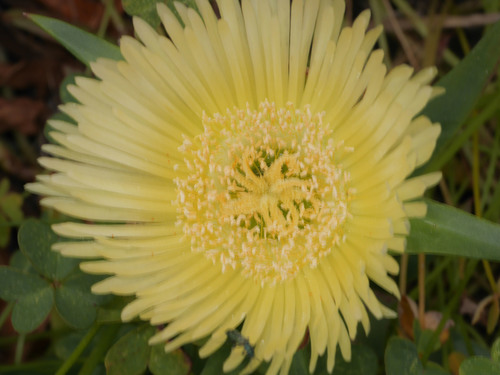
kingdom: Plantae
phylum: Tracheophyta
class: Magnoliopsida
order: Caryophyllales
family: Aizoaceae
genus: Carpobrotus
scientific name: Carpobrotus edulis
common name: Hottentot-fig
